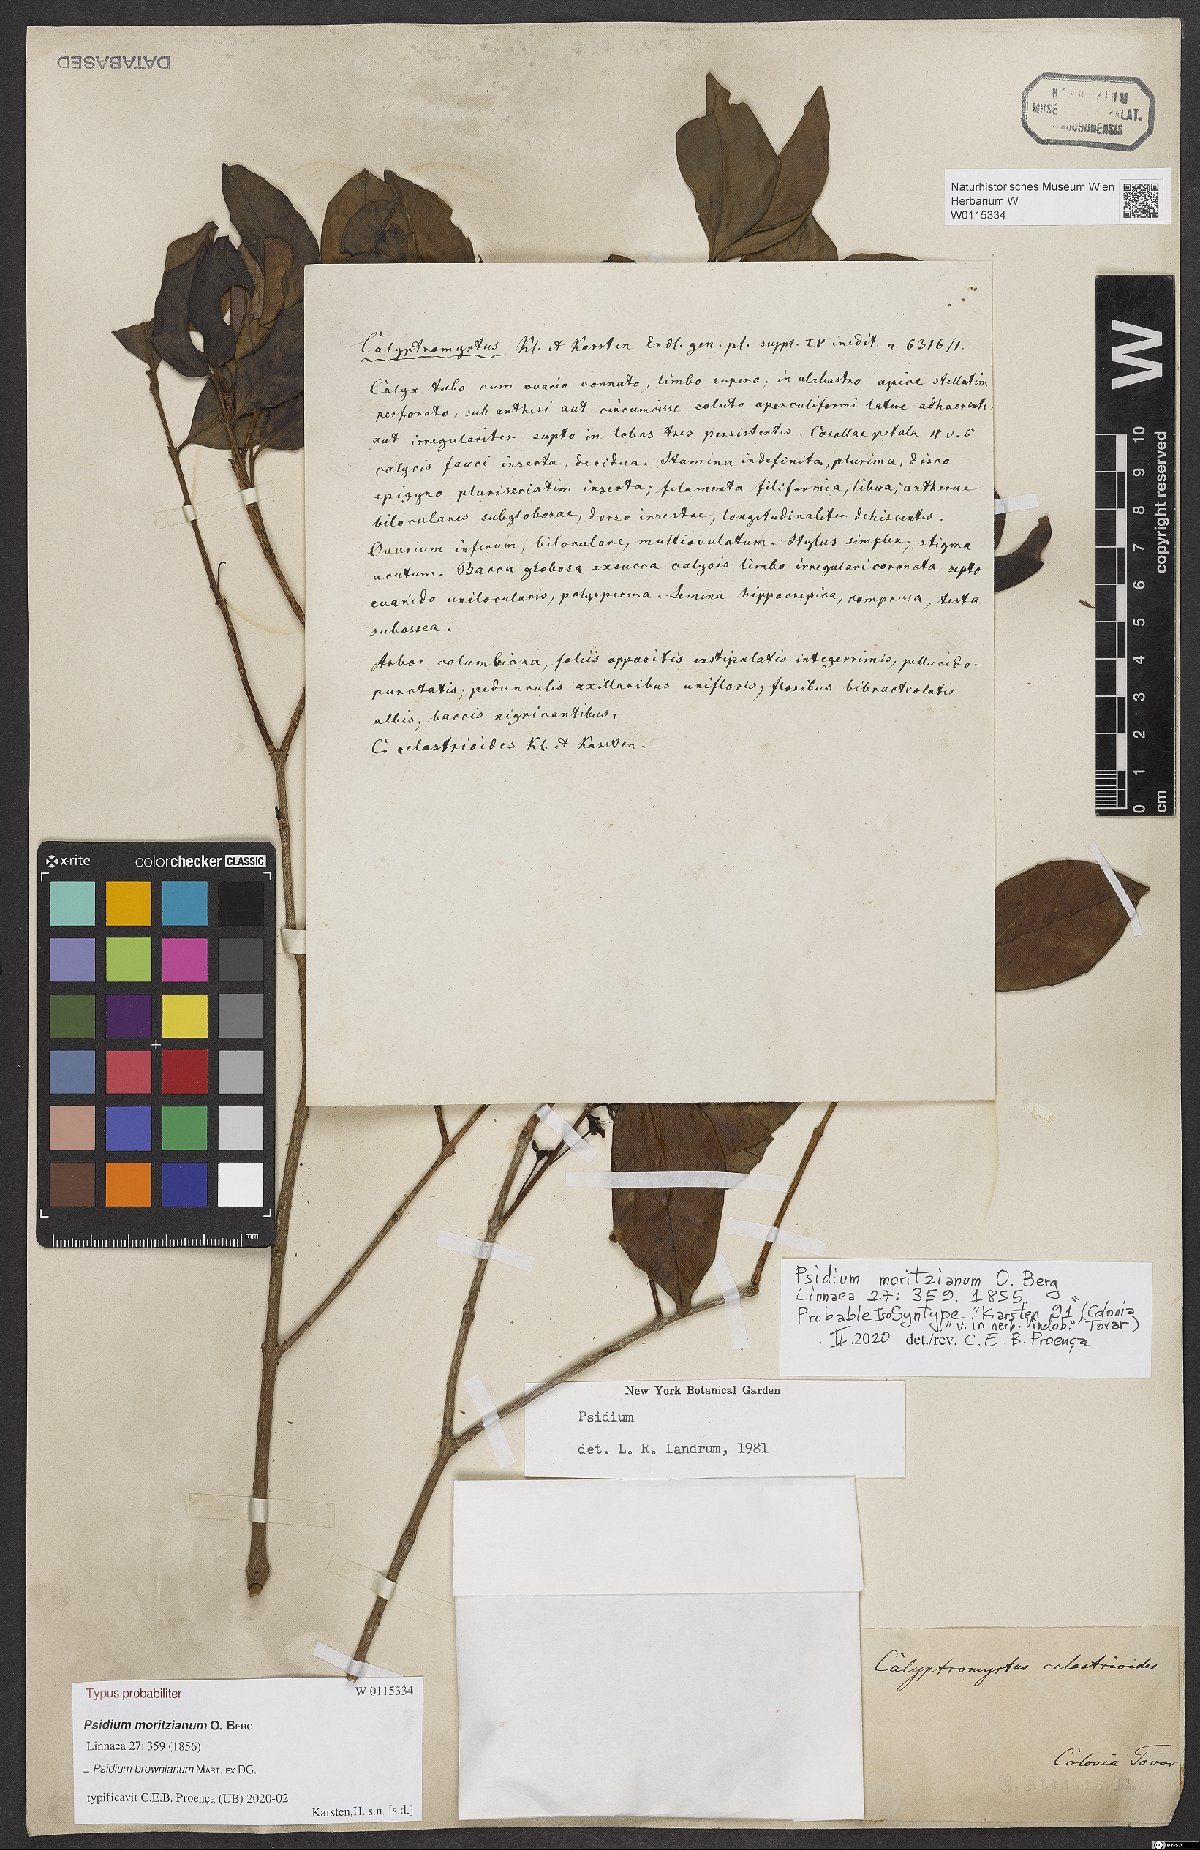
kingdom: Plantae
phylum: Tracheophyta
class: Magnoliopsida
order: Myrtales
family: Myrtaceae
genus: Psidium
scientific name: Psidium brownianum
